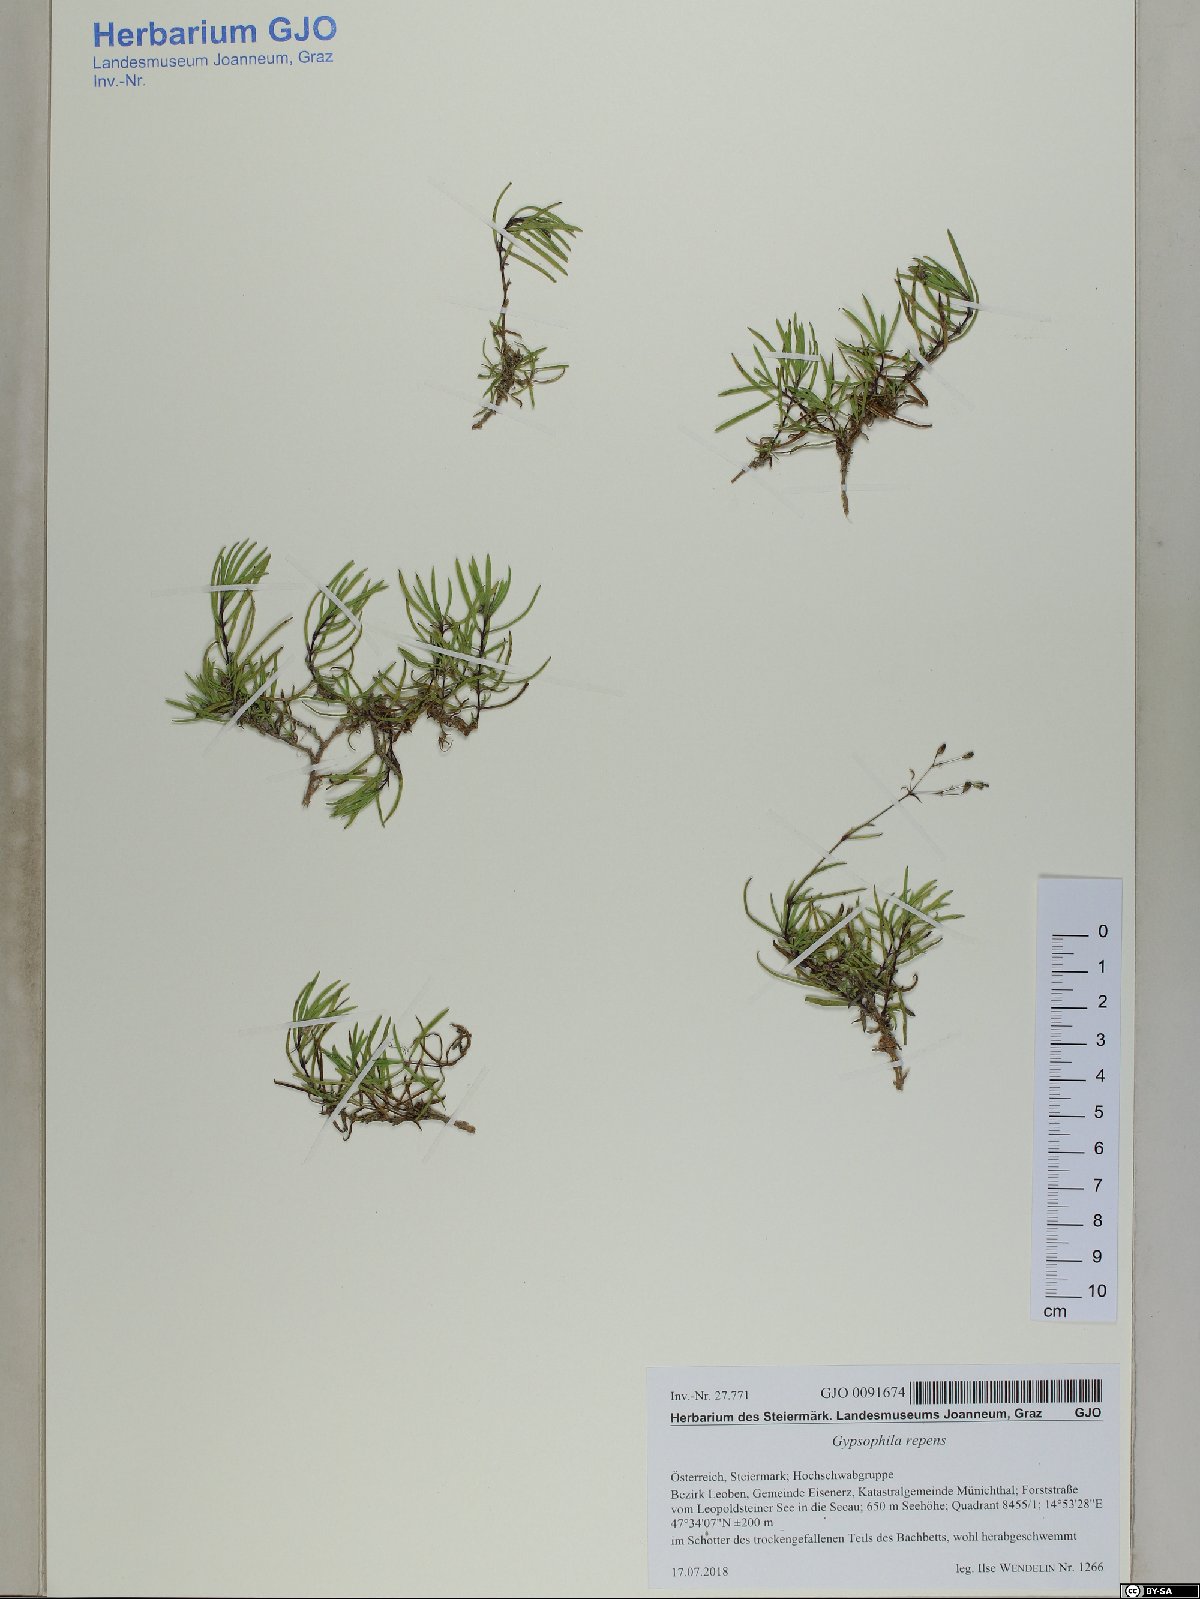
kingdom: Plantae
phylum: Tracheophyta
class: Magnoliopsida
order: Caryophyllales
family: Caryophyllaceae
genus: Gypsophila
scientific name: Gypsophila repens
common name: Creeping baby's-breath
